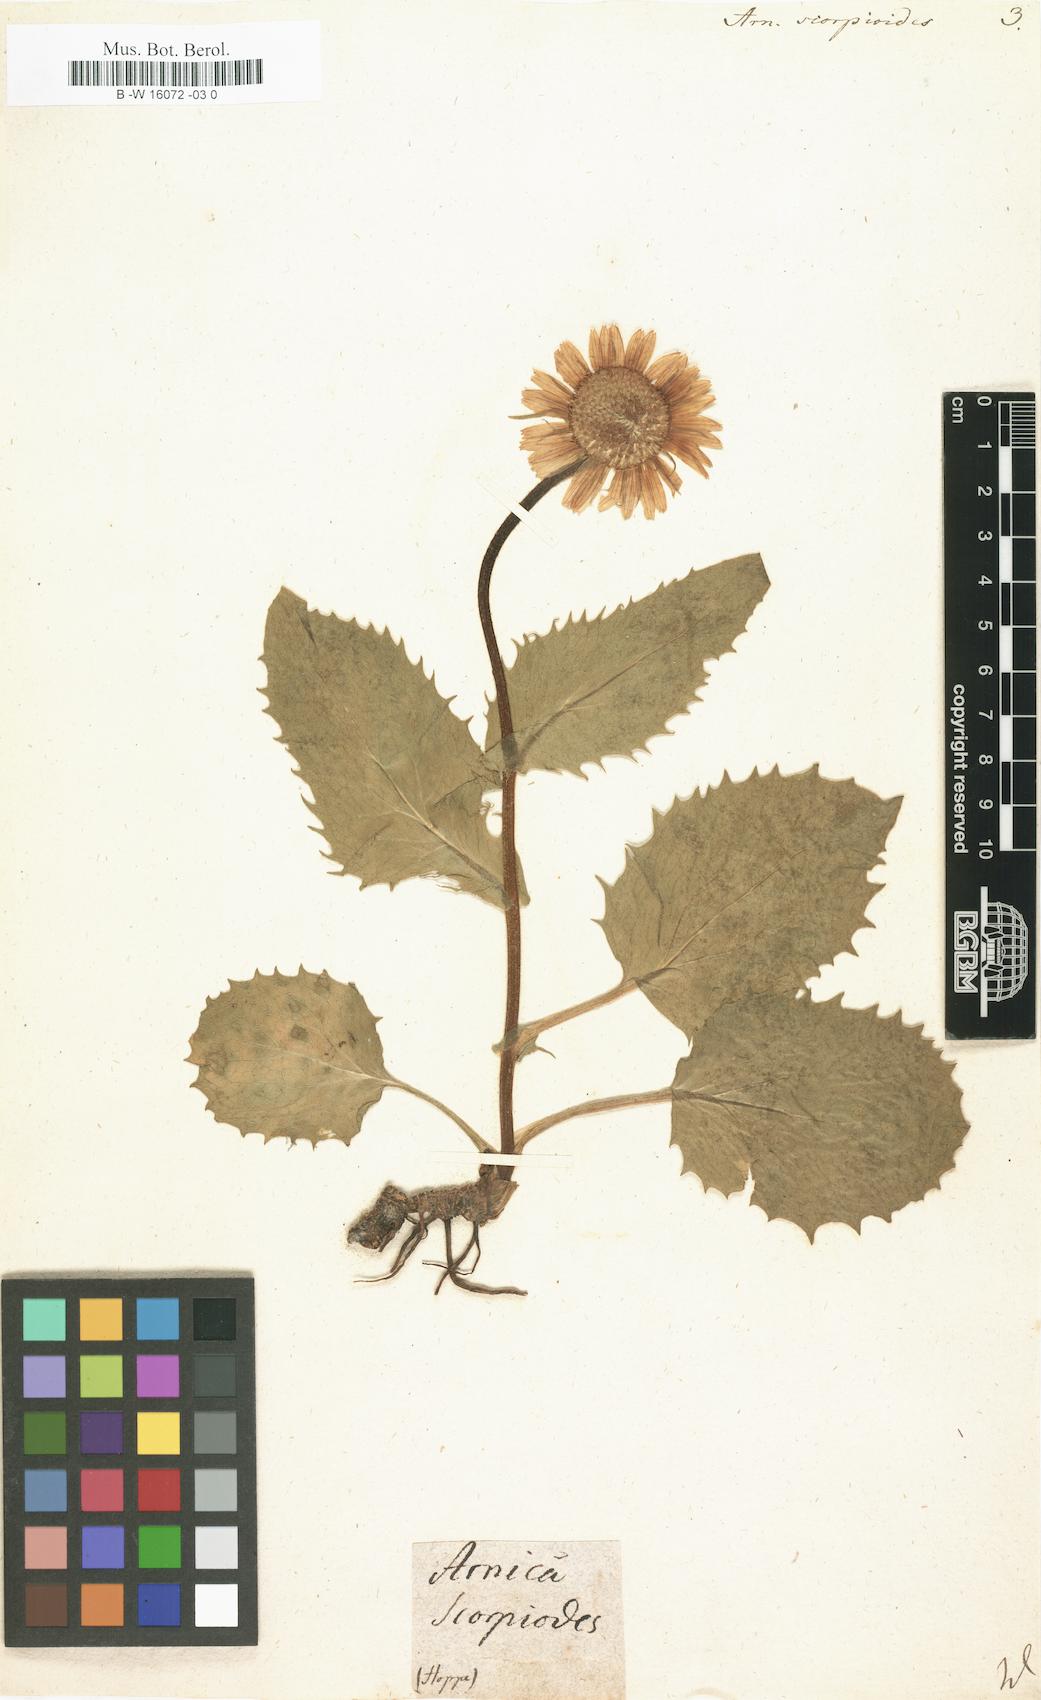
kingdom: Plantae
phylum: Tracheophyta
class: Magnoliopsida
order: Asterales
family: Asteraceae
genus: Doronicum
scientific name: Doronicum grandiflorum
